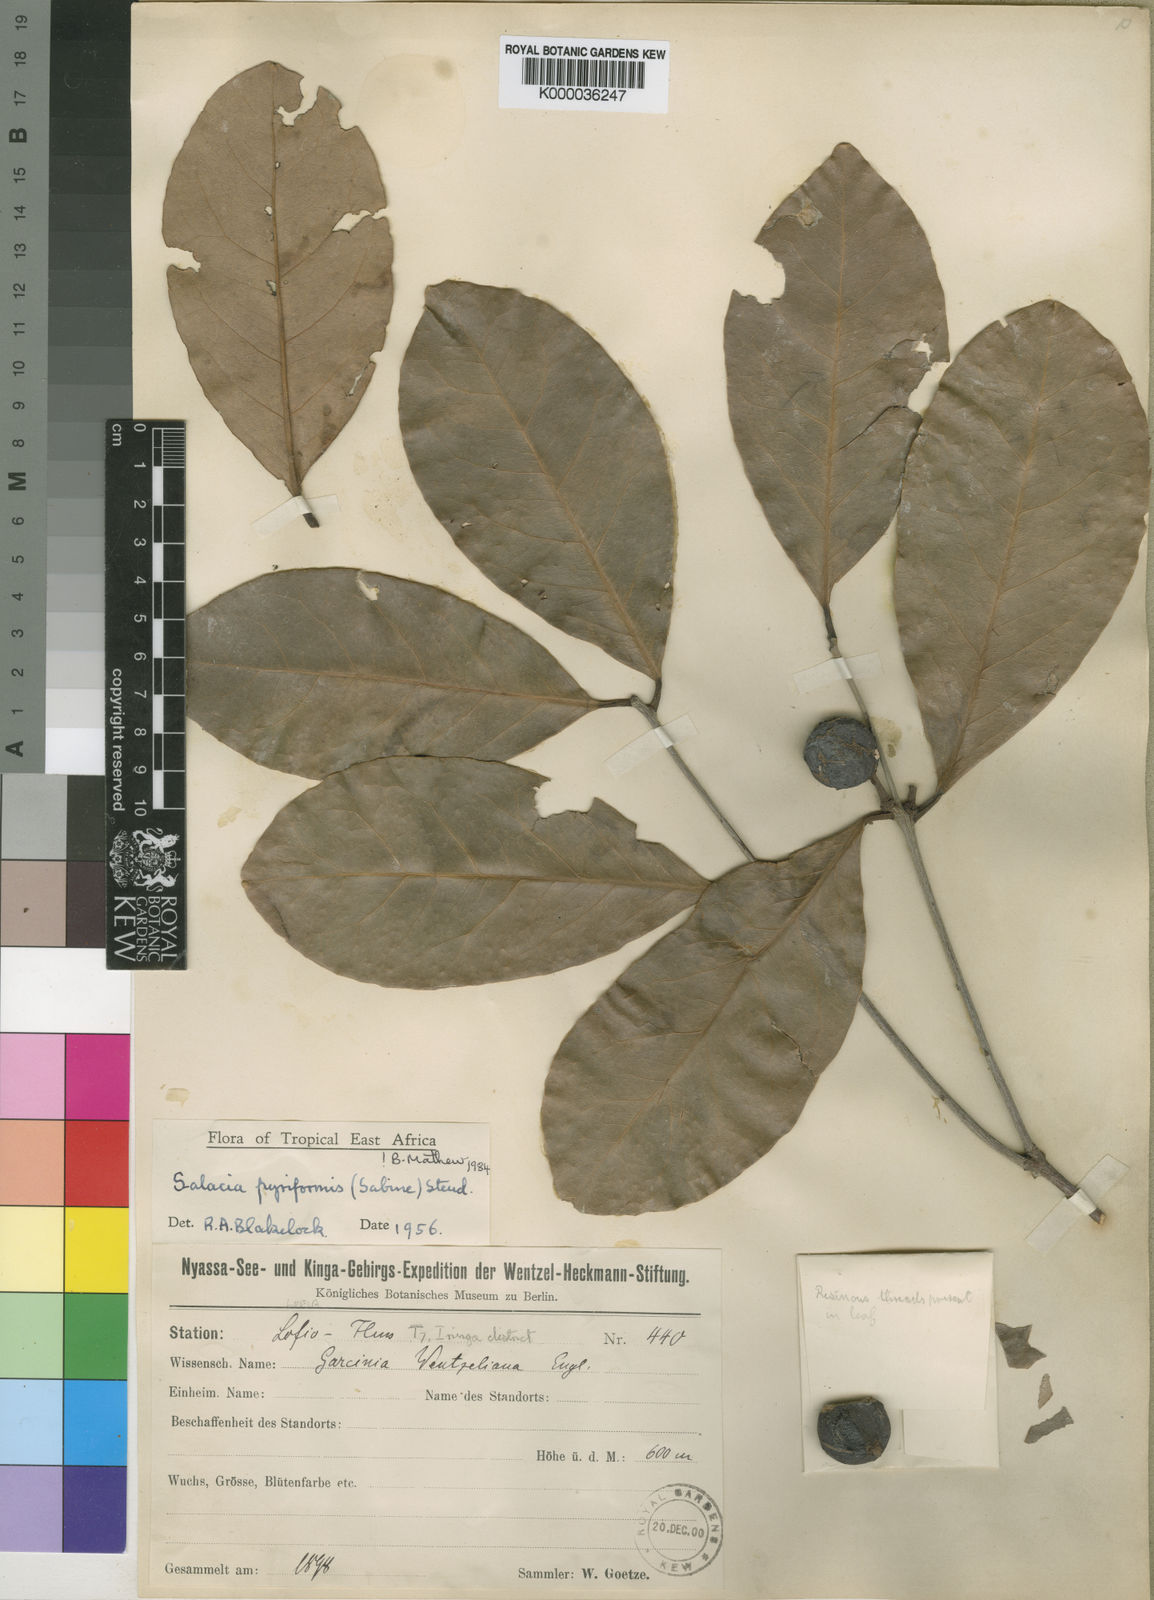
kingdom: Plantae
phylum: Tracheophyta
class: Magnoliopsida
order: Celastrales
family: Celastraceae
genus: Salacia
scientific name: Salacia pyriformis
